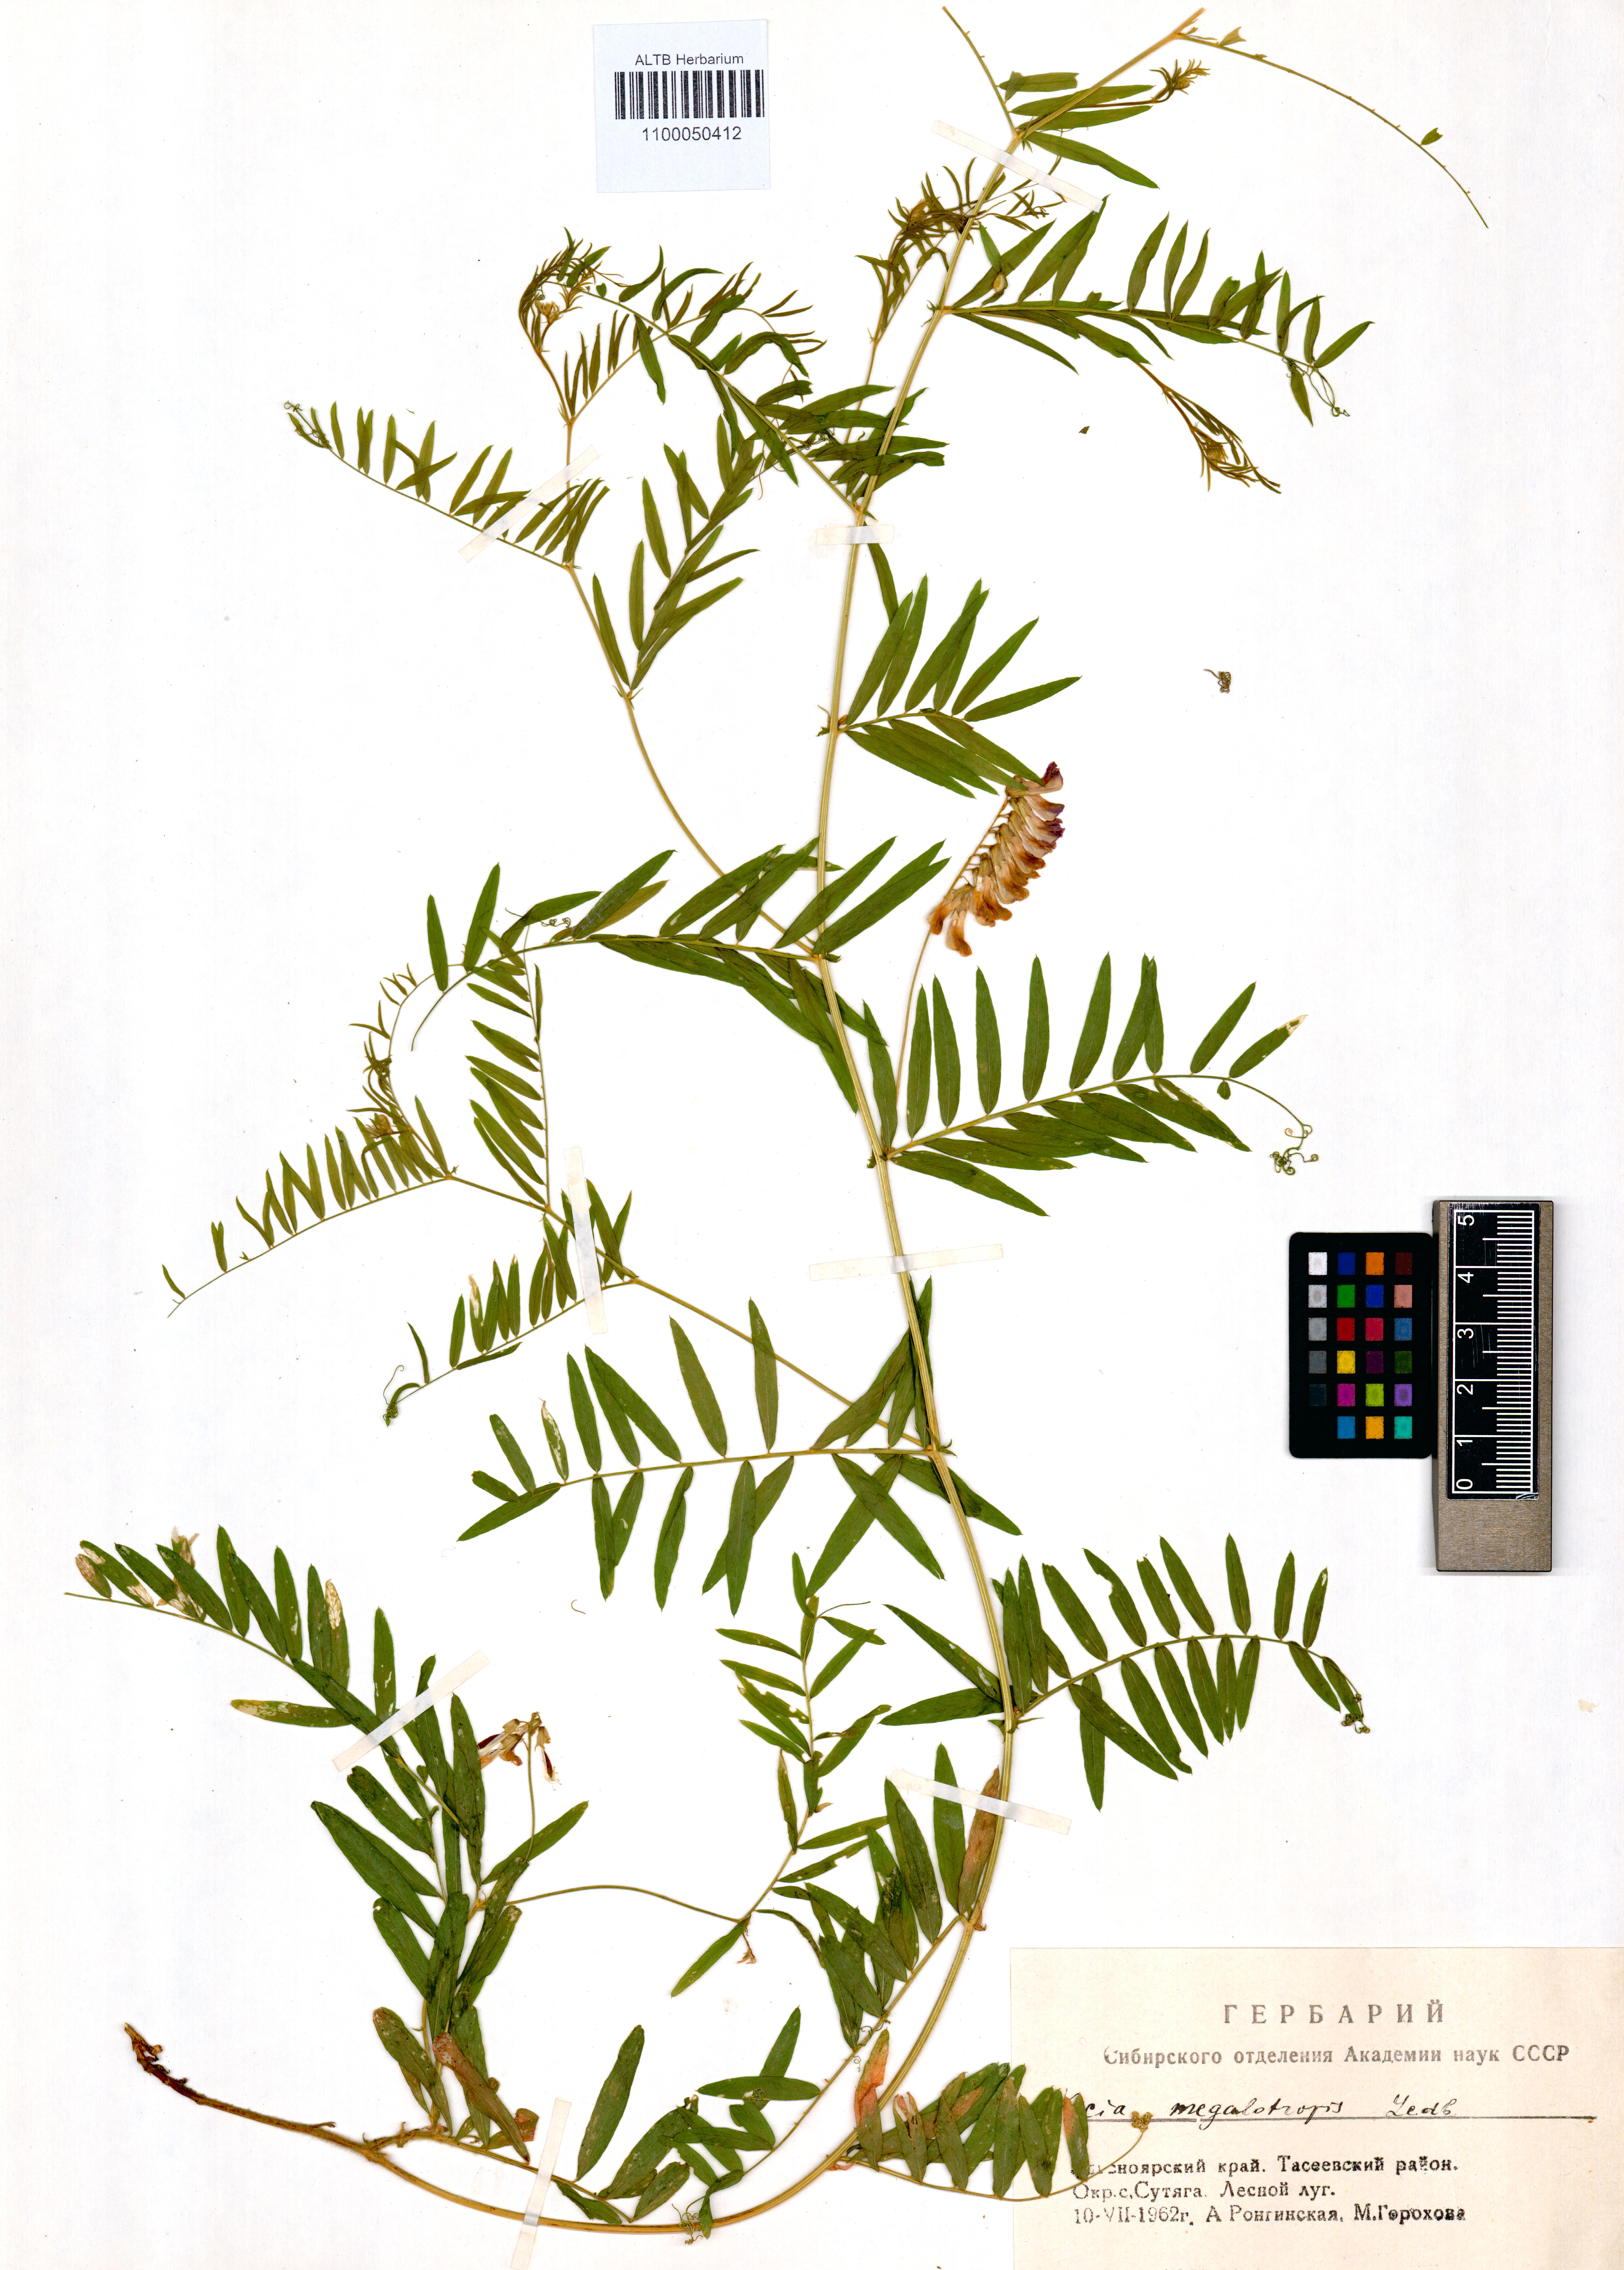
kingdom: Plantae
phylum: Tracheophyta
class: Magnoliopsida
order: Fabales
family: Fabaceae
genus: Vicia
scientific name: Vicia megalotropis
